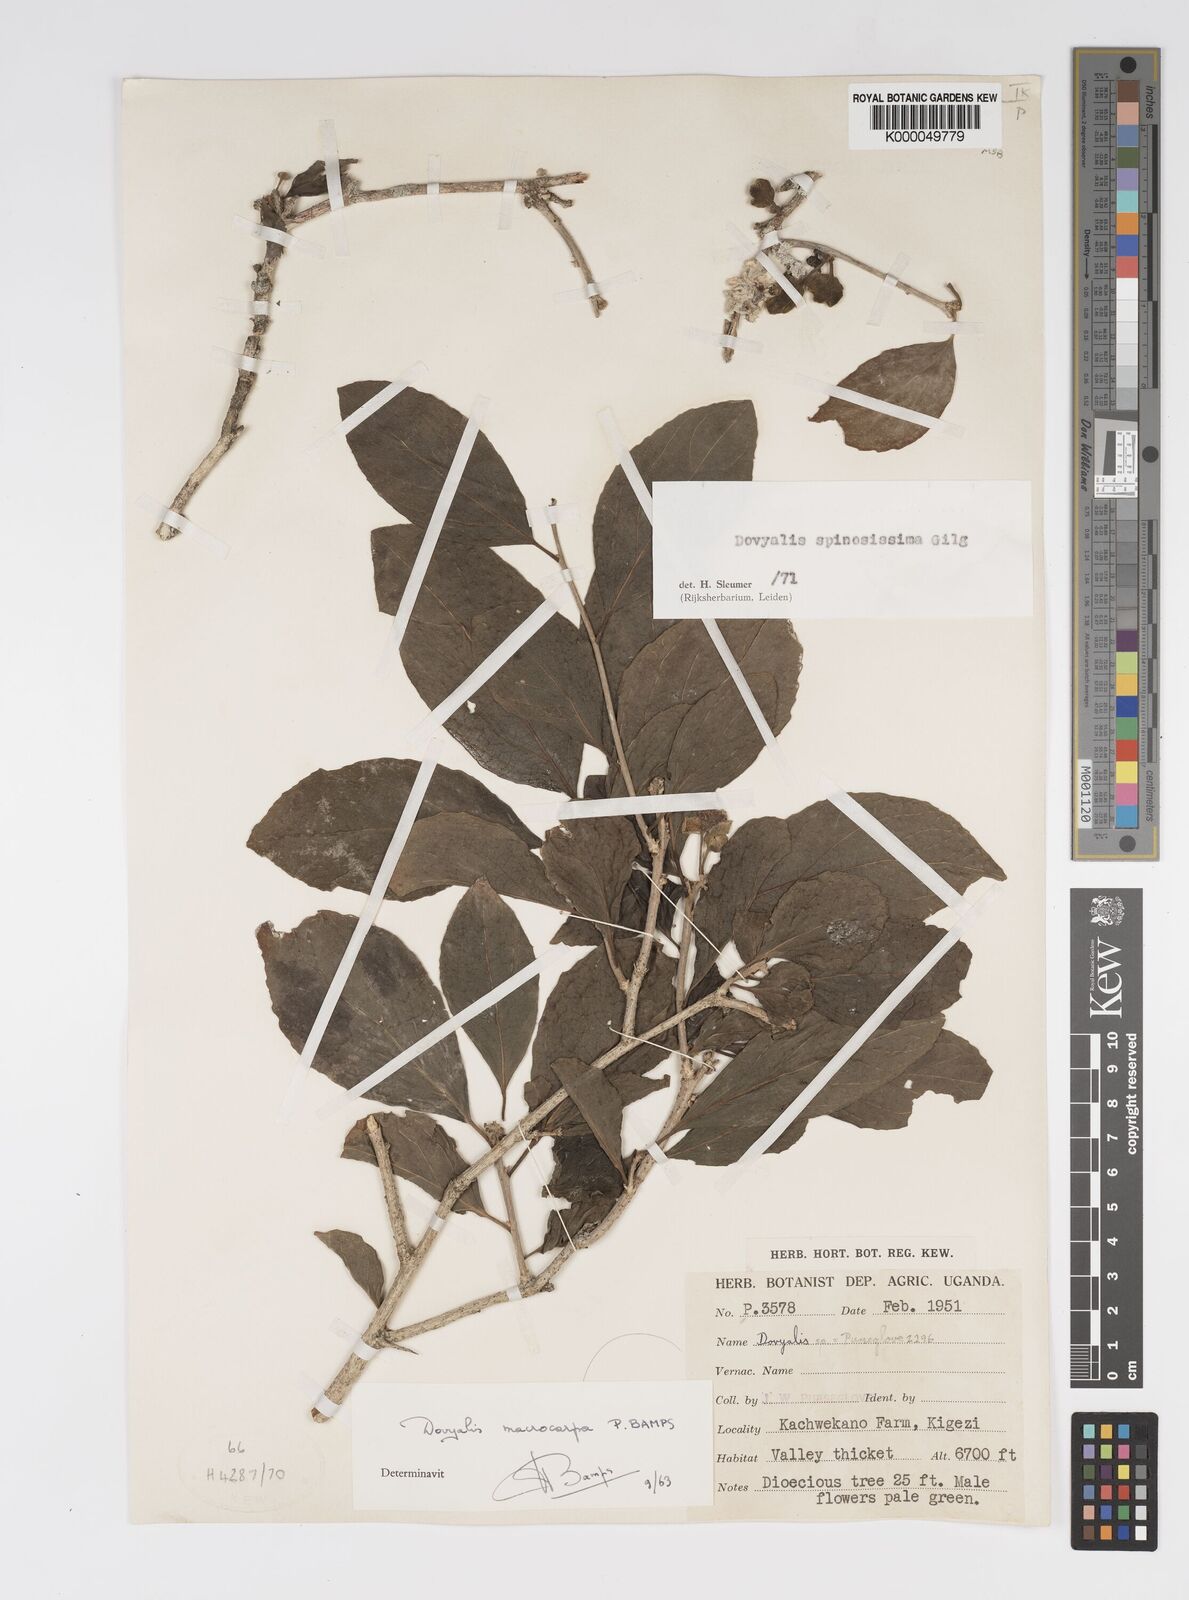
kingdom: Plantae
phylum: Tracheophyta
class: Magnoliopsida
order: Malpighiales
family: Salicaceae
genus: Dovyalis
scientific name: Dovyalis spinosissima
